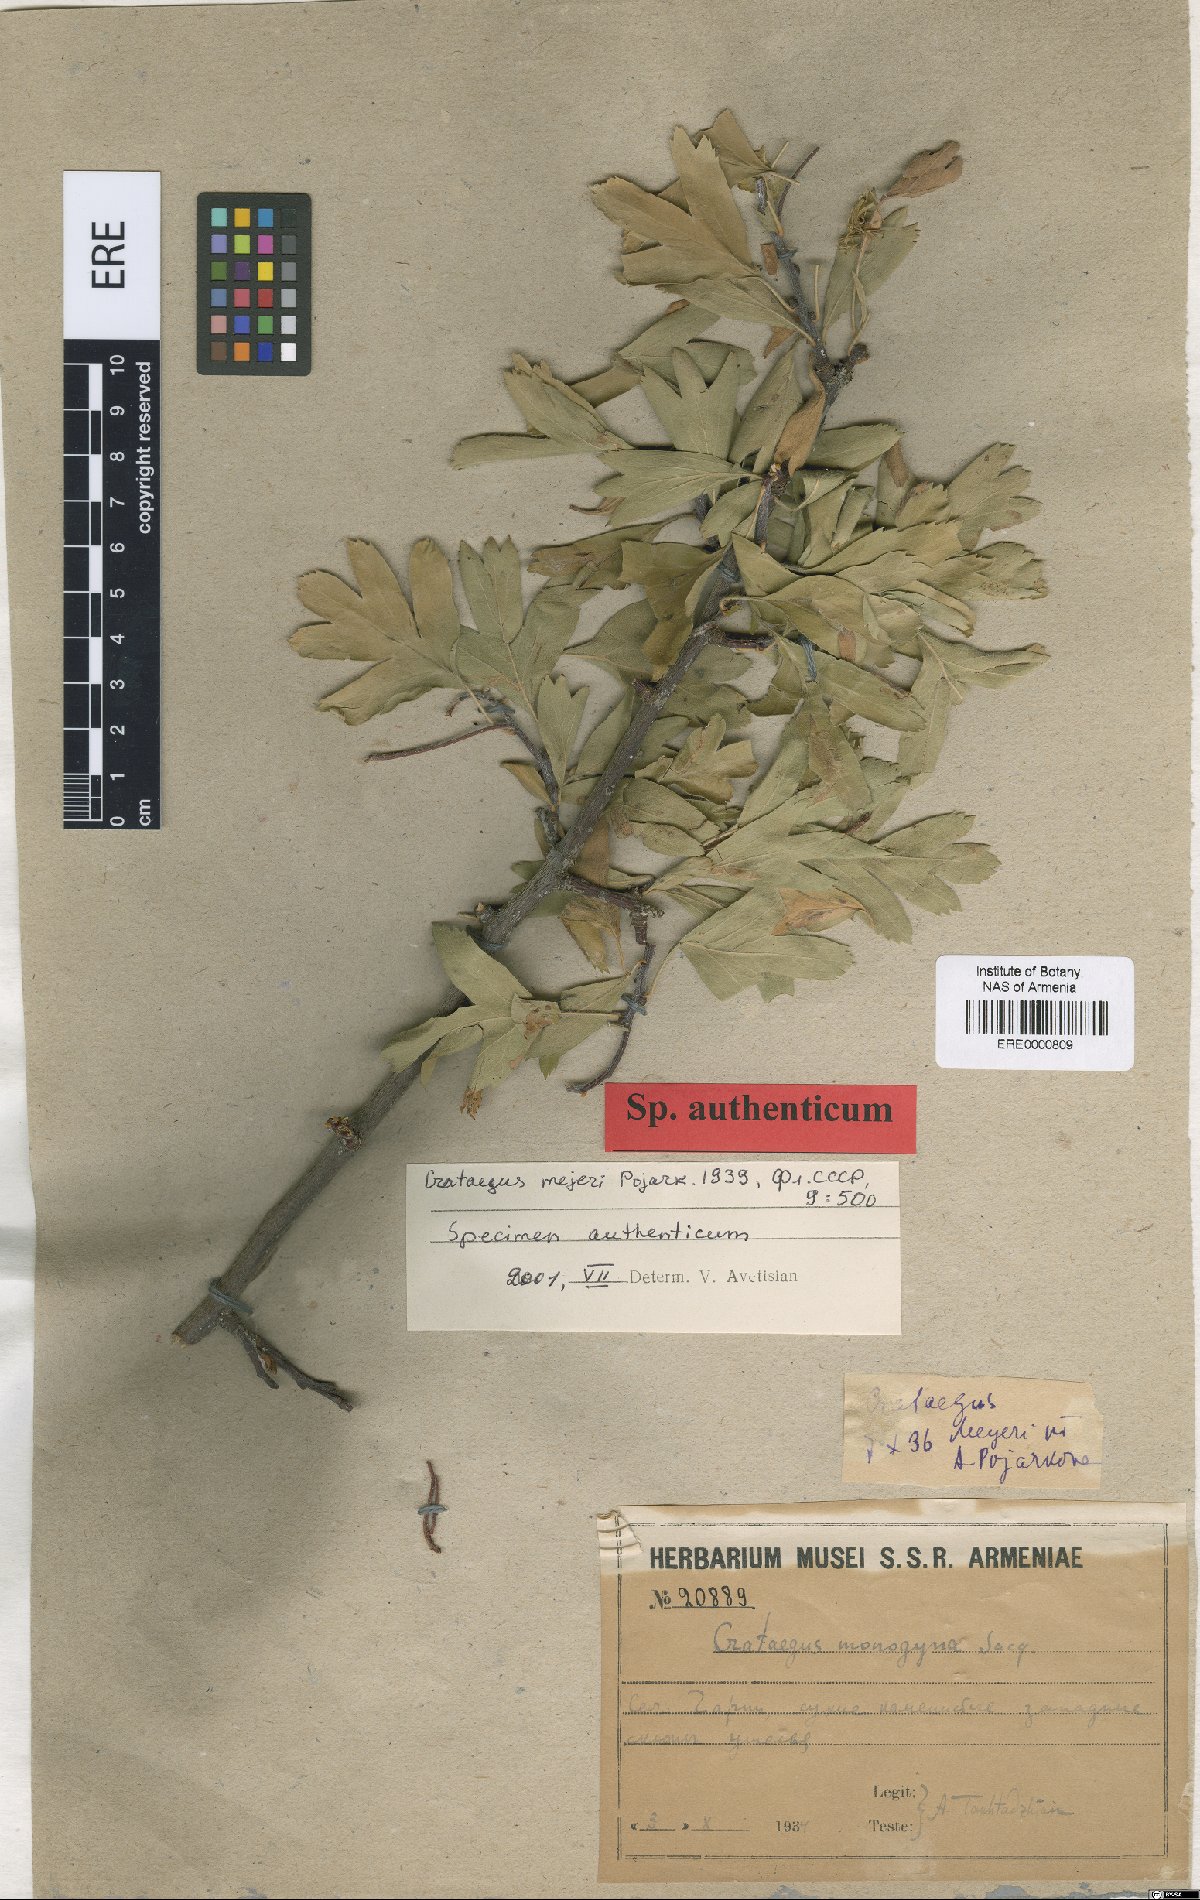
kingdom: Plantae
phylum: Tracheophyta
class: Magnoliopsida
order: Rosales
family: Rosaceae
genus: Crataegus
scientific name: Crataegus meyeri
